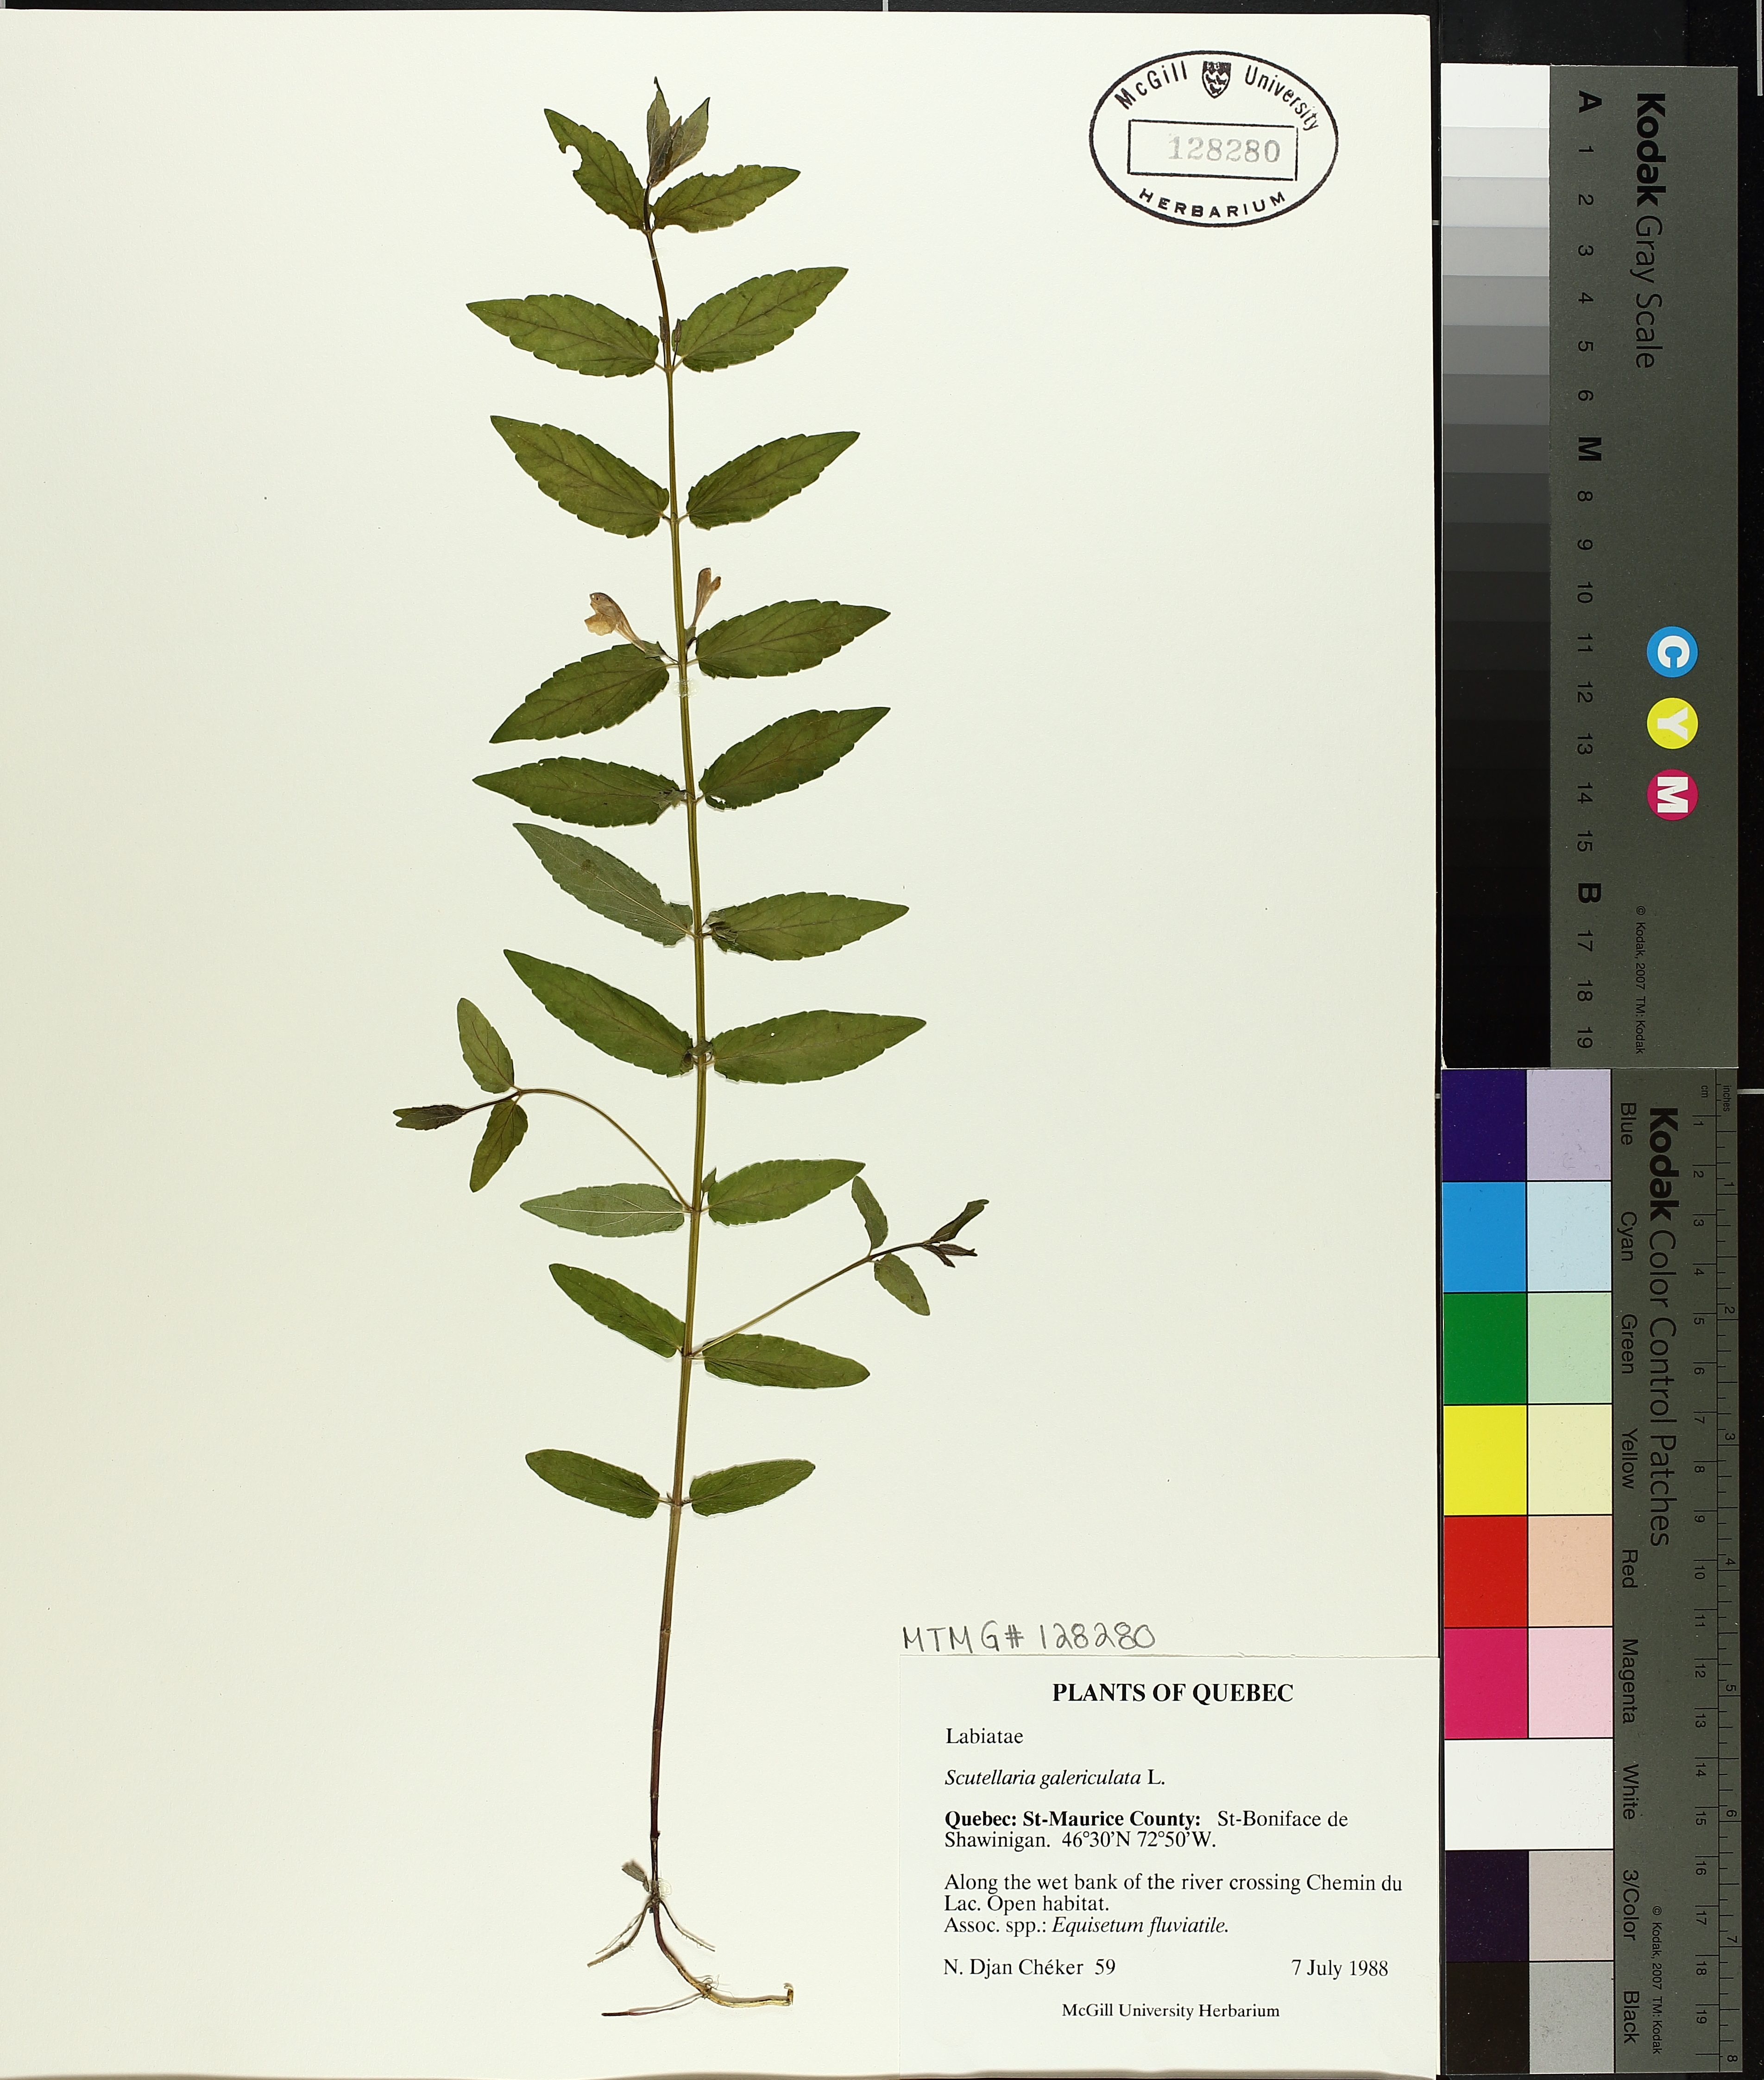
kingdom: Plantae
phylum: Tracheophyta
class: Magnoliopsida
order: Lamiales
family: Lamiaceae
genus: Scutellaria
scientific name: Scutellaria galericulata
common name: Skullcap
